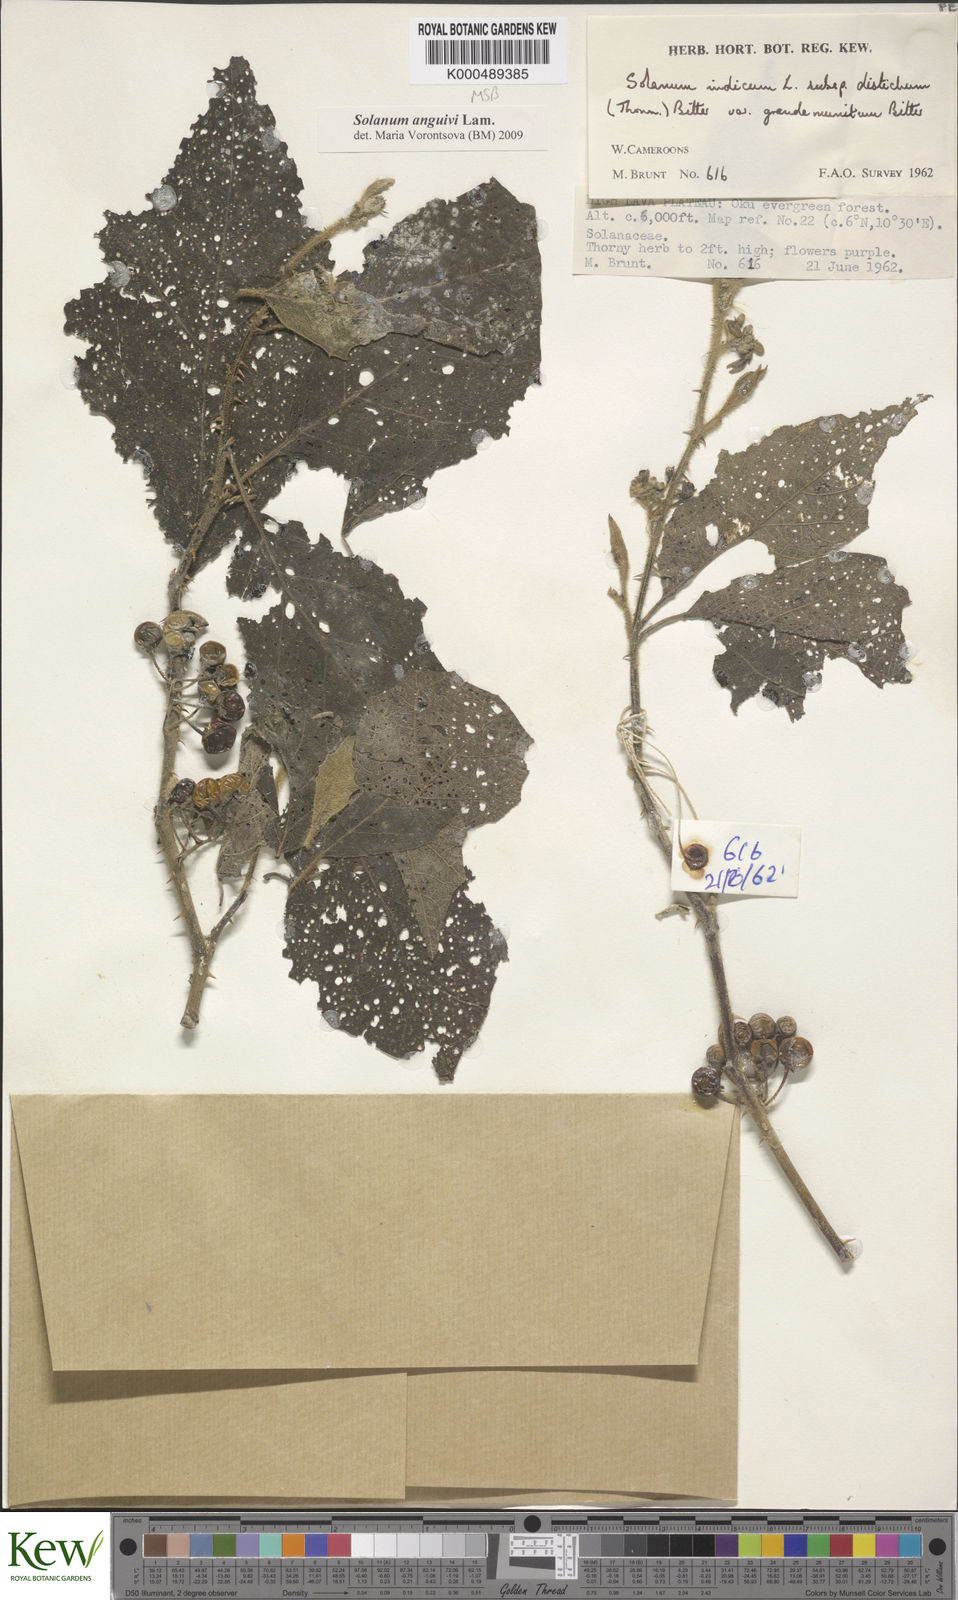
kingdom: Plantae
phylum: Tracheophyta
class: Magnoliopsida
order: Solanales
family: Solanaceae
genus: Solanum
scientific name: Solanum anguivi
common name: Forest bitterberry
